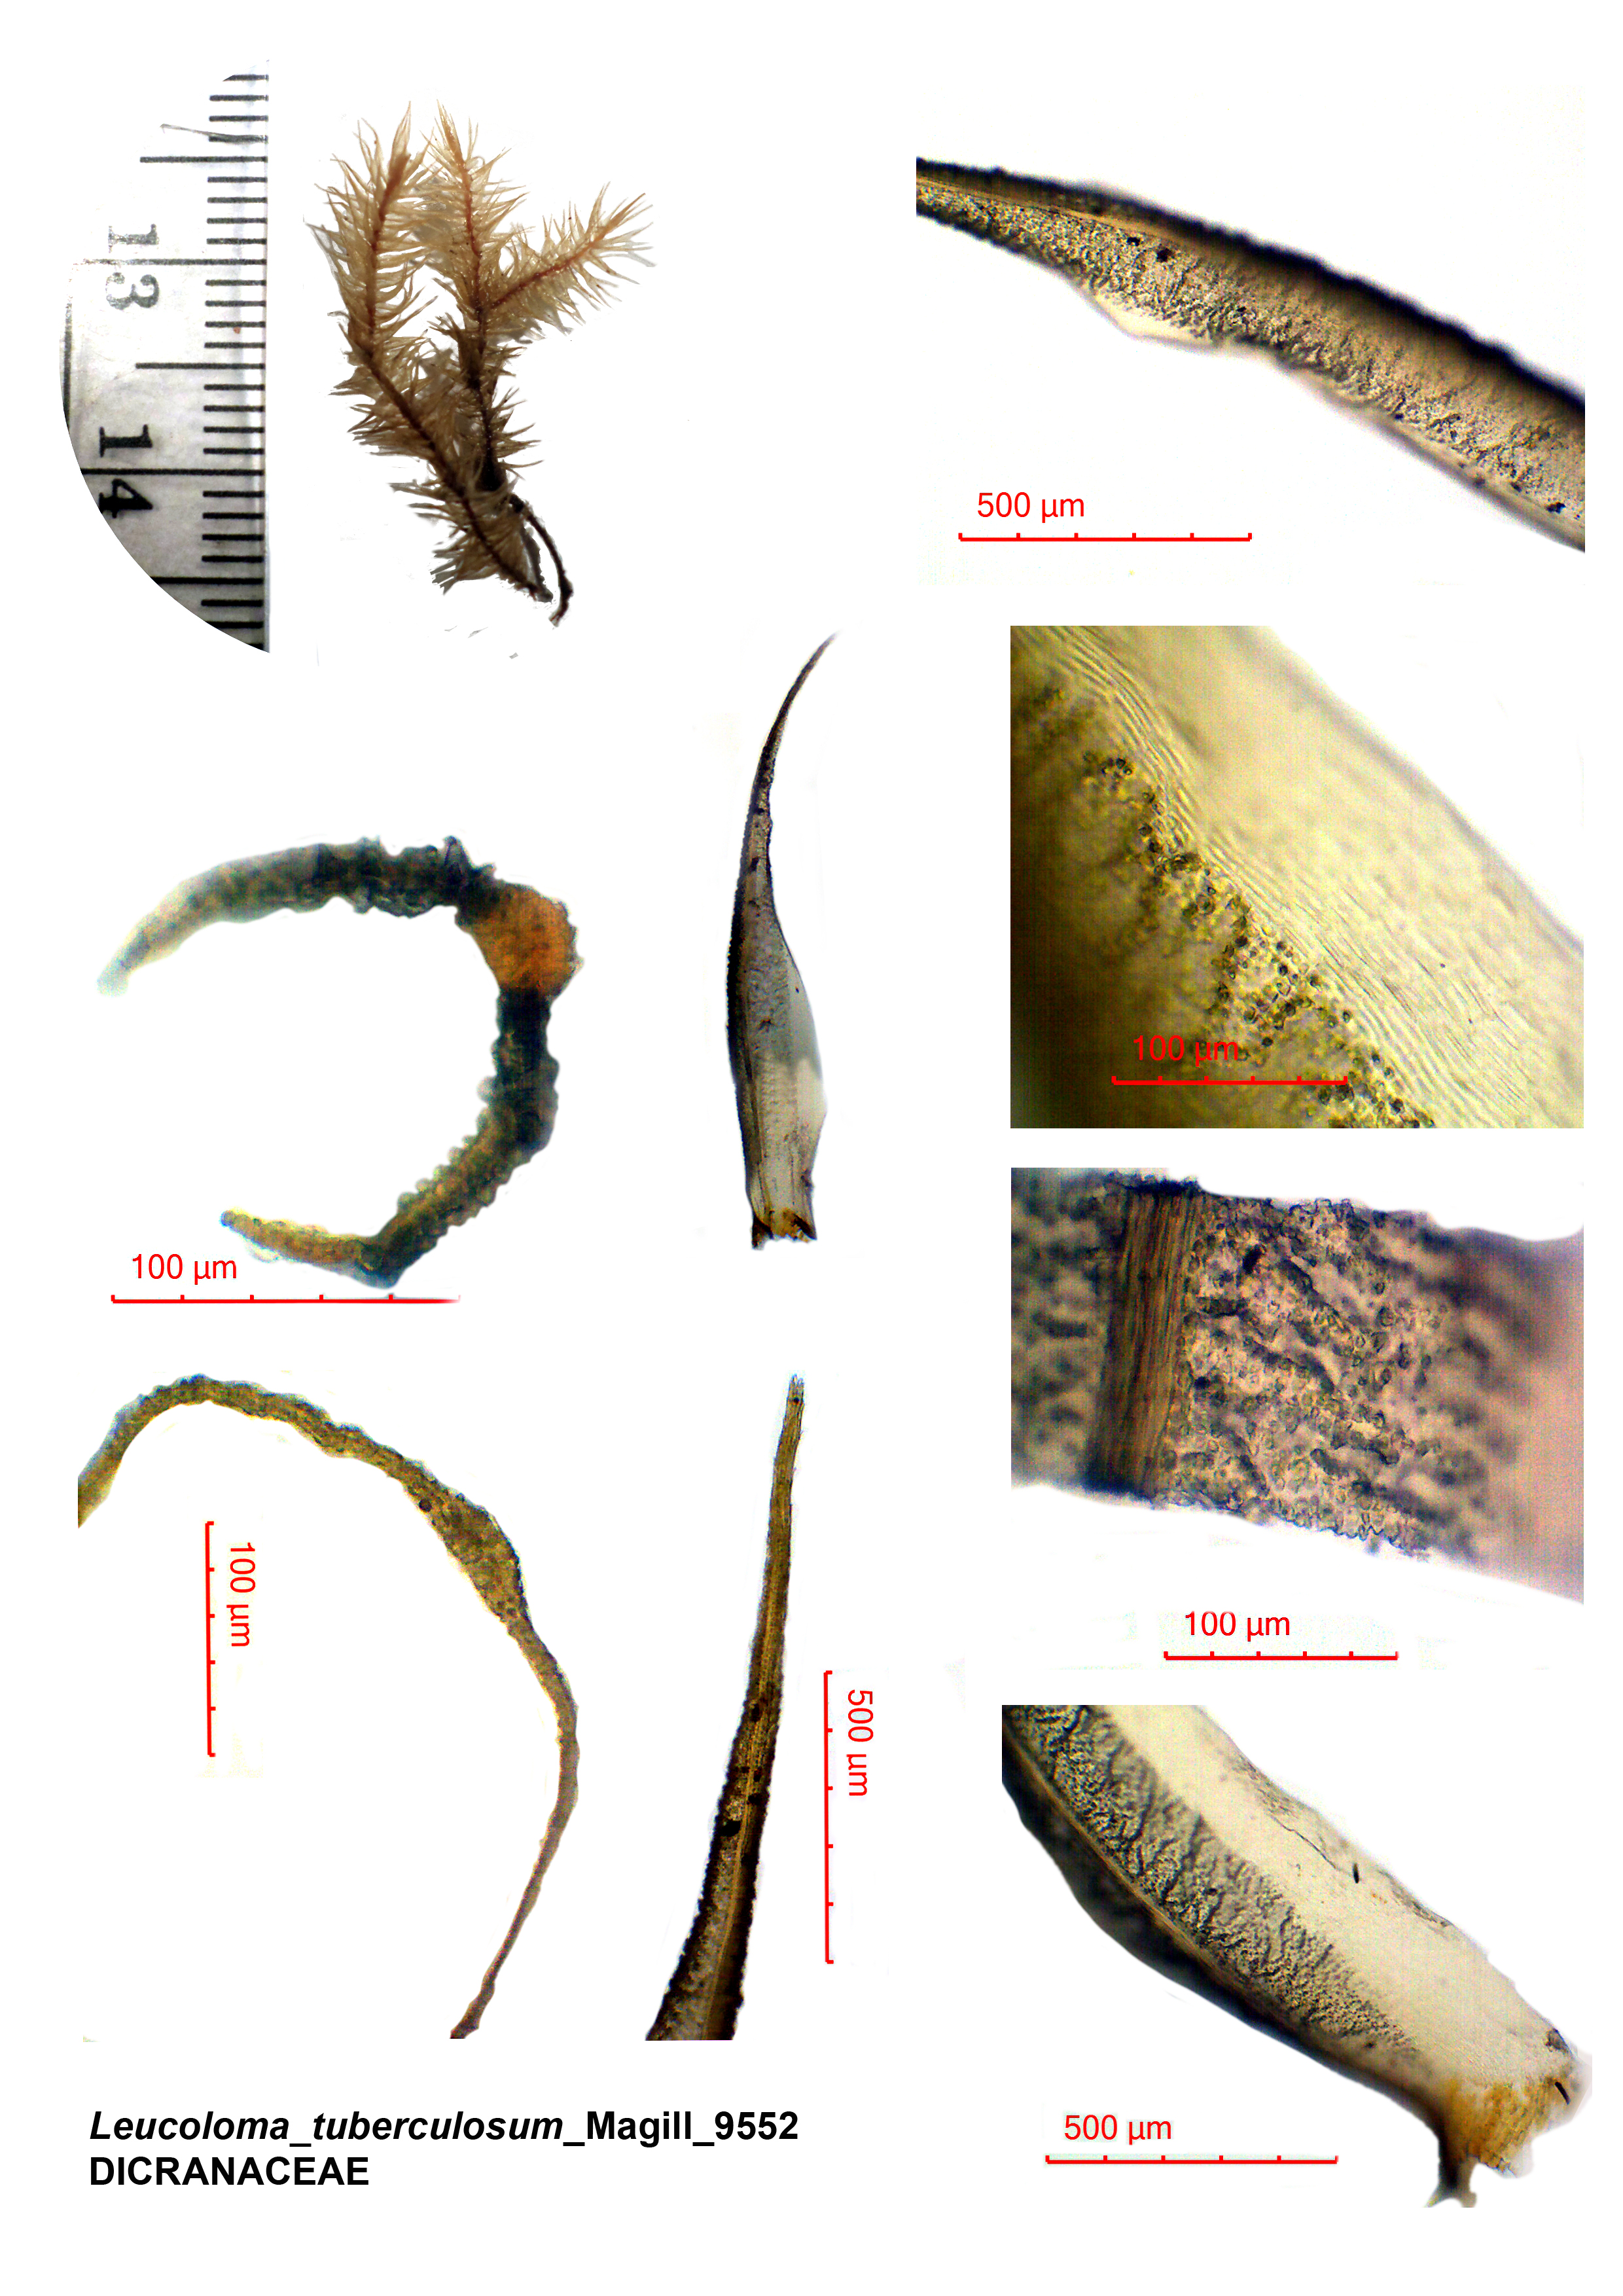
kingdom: Plantae
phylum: Bryophyta
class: Bryopsida
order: Dicranales
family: Dicranaceae
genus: Leucoloma
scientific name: Leucoloma tuberculosum
